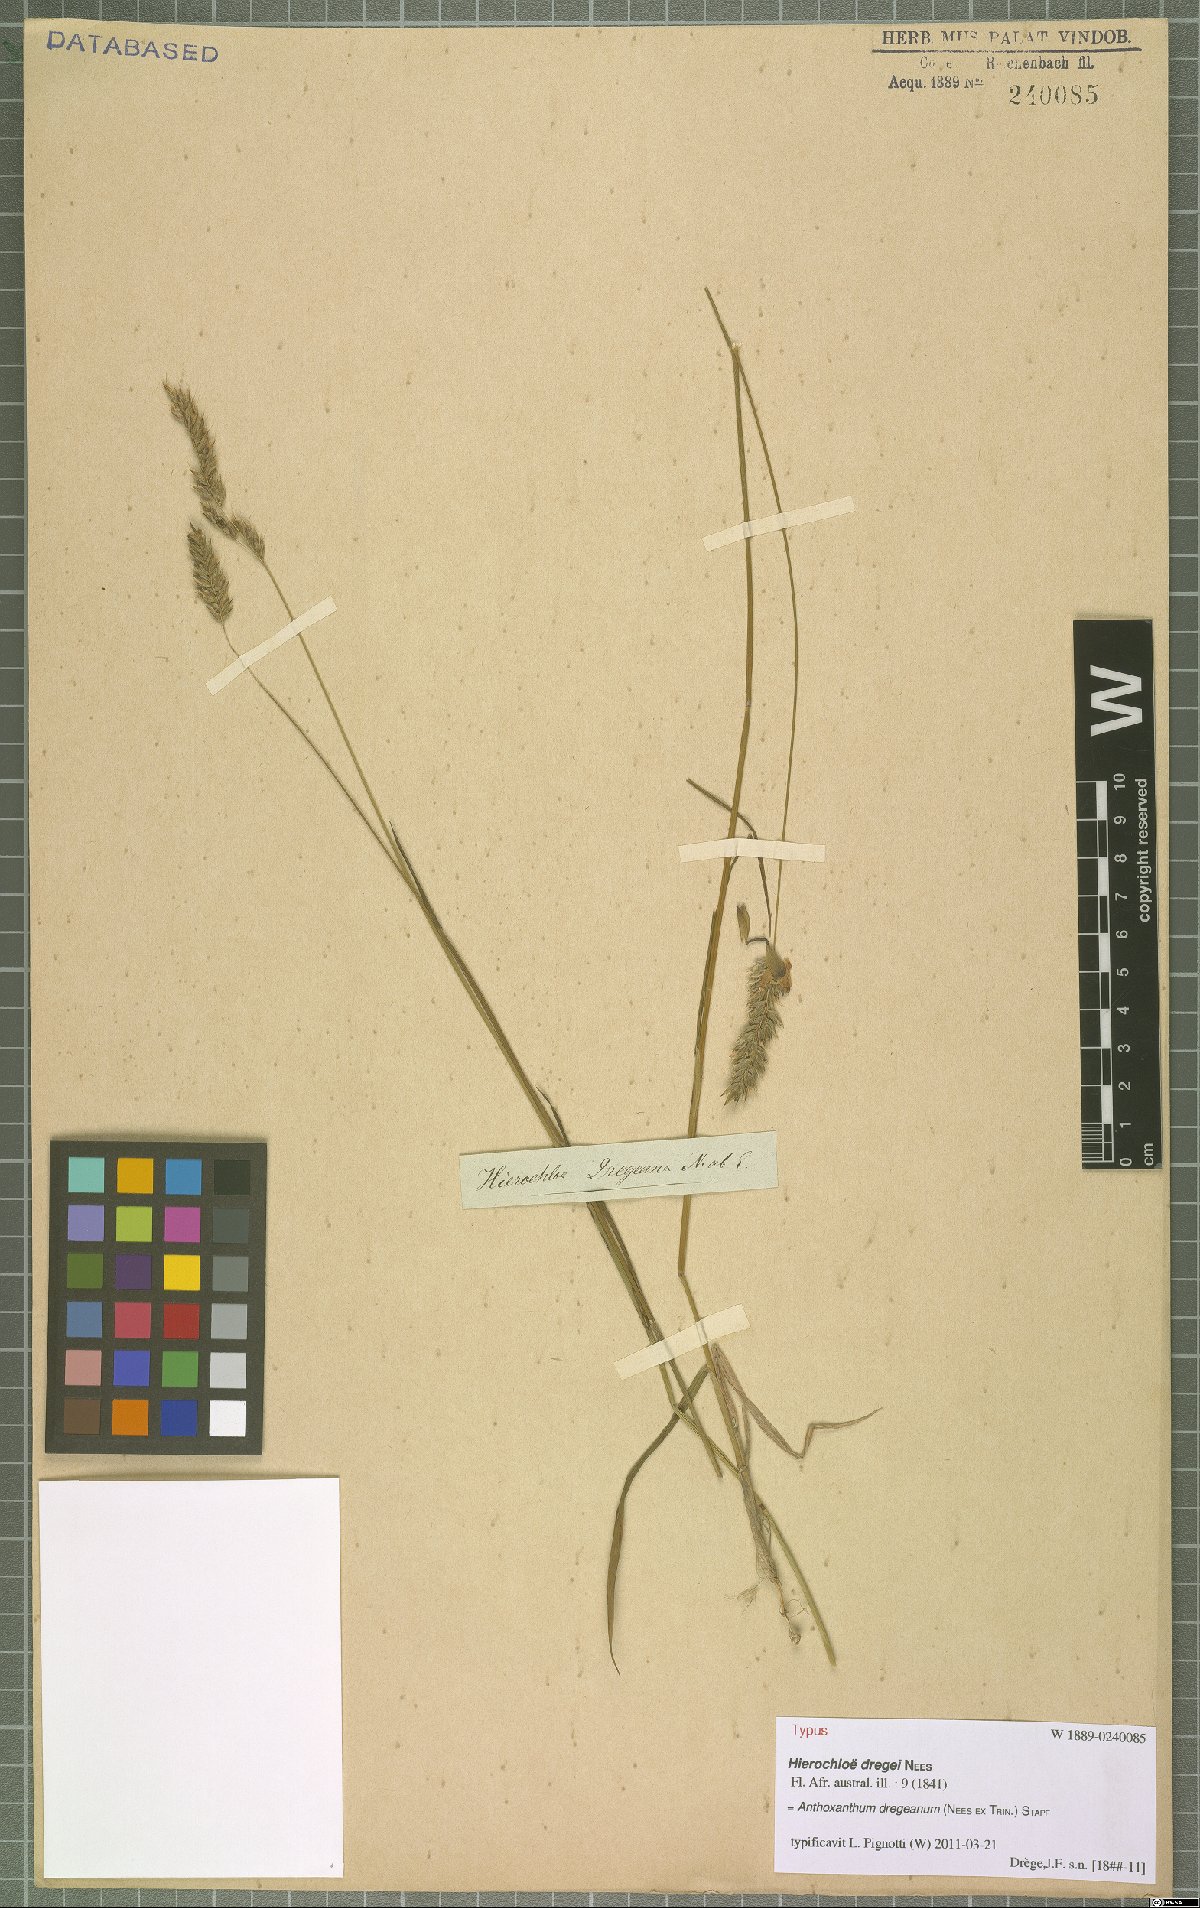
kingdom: Plantae
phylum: Tracheophyta
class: Liliopsida
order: Poales
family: Poaceae
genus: Anthoxanthum
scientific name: Anthoxanthum dregeanum
